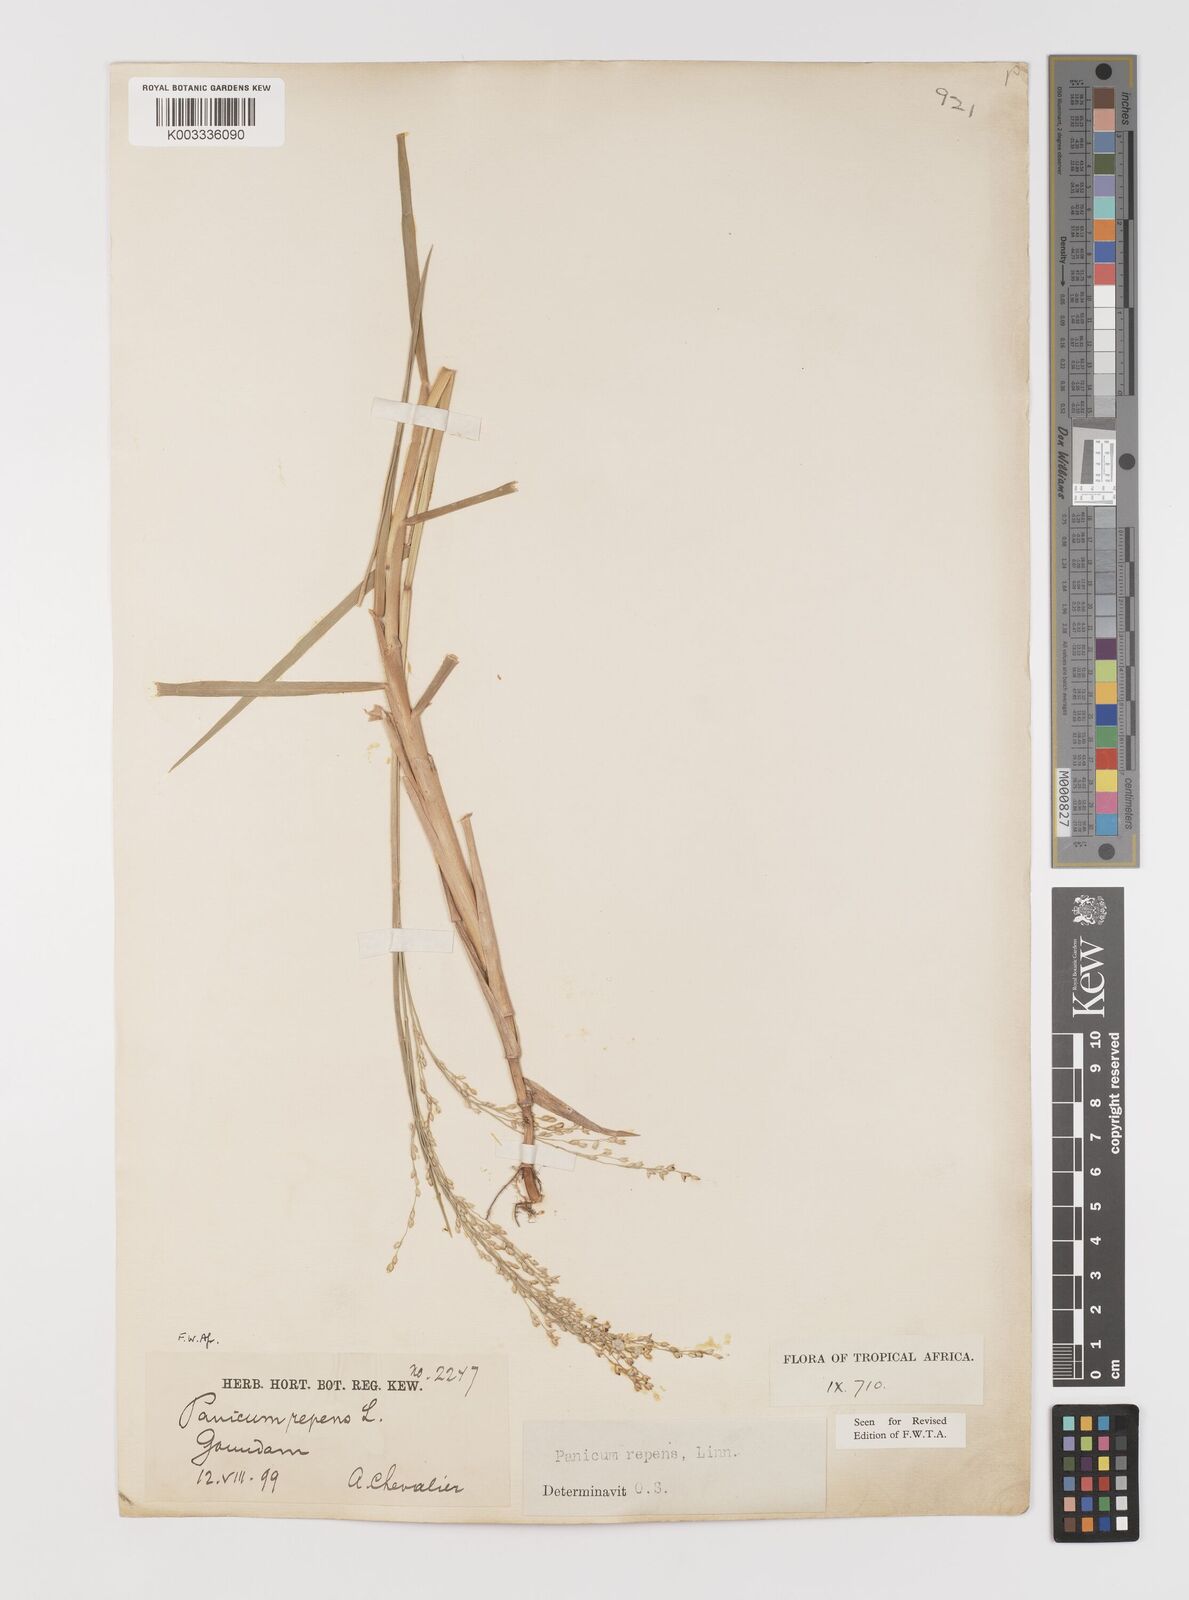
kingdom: Plantae
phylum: Tracheophyta
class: Liliopsida
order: Poales
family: Poaceae
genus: Panicum
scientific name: Panicum repens
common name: Torpedo grass
